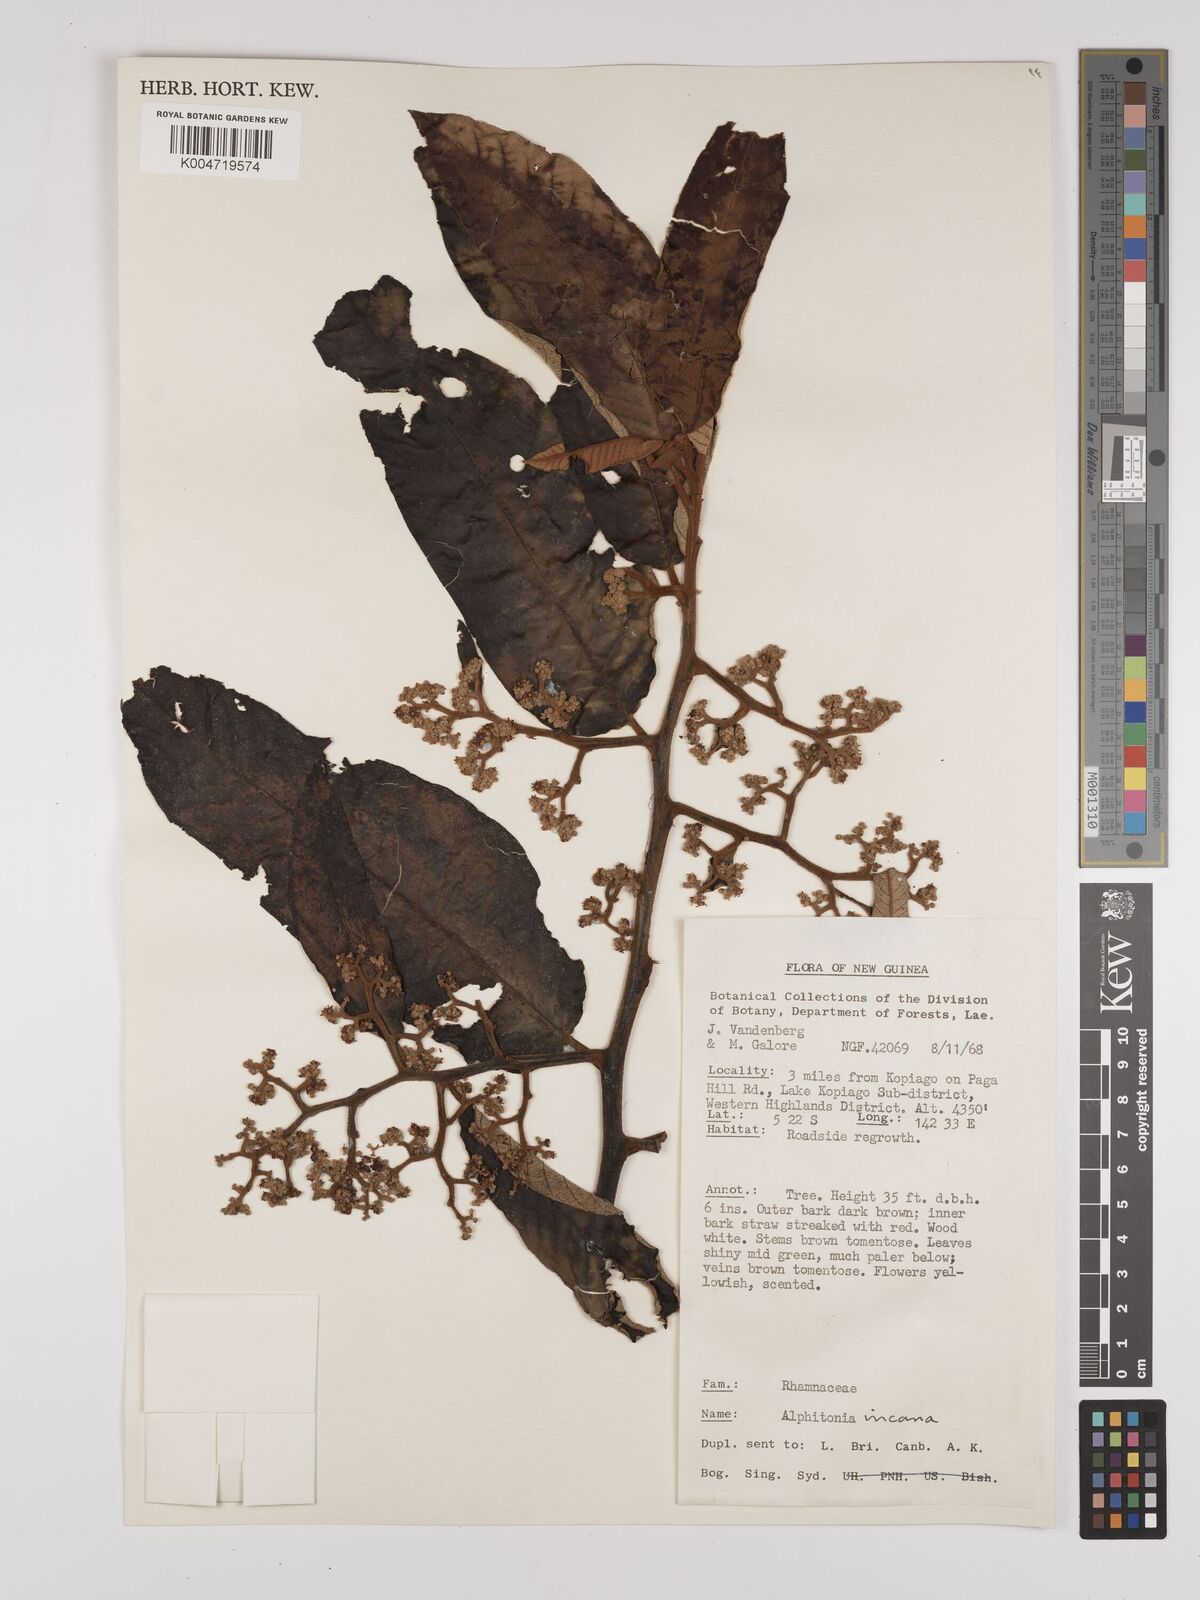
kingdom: Plantae
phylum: Tracheophyta
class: Magnoliopsida
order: Rosales
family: Rhamnaceae
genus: Alphitonia
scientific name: Alphitonia incana
